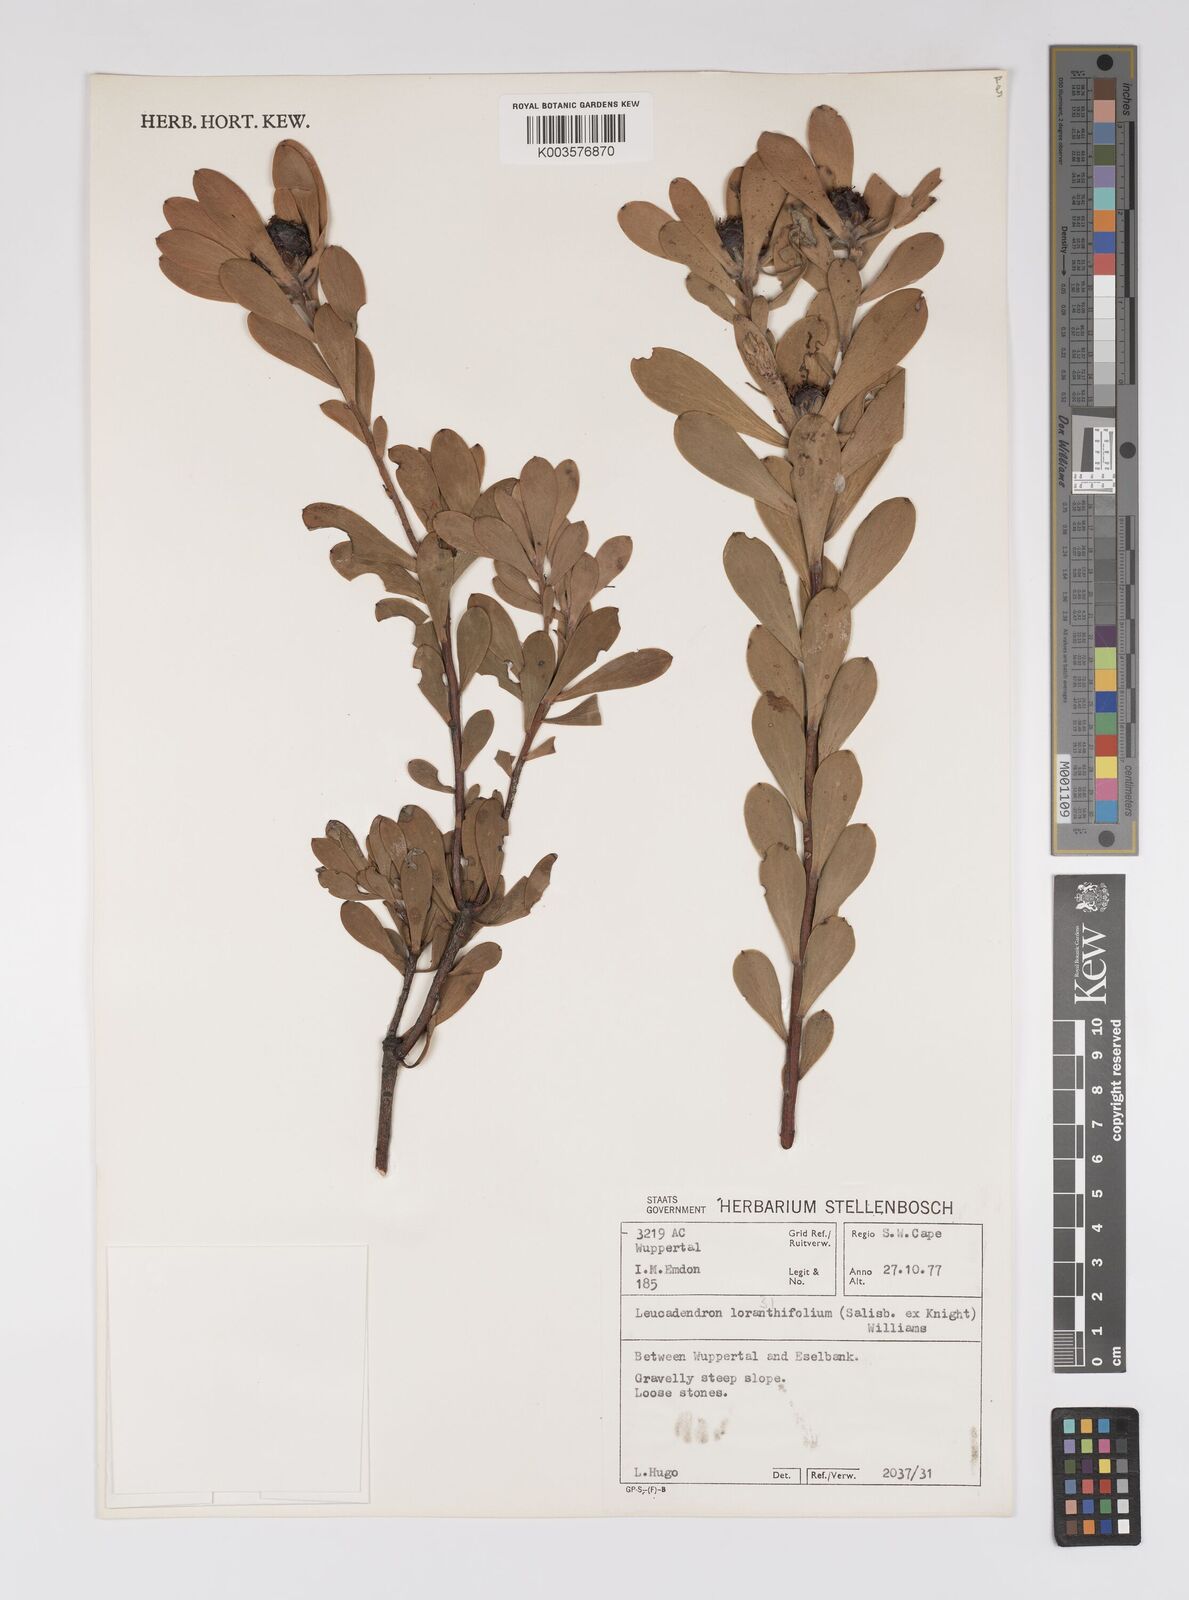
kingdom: Plantae
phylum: Tracheophyta
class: Magnoliopsida
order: Proteales
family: Proteaceae
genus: Leucadendron
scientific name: Leucadendron loranthifolium
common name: Green-flower sunbush
